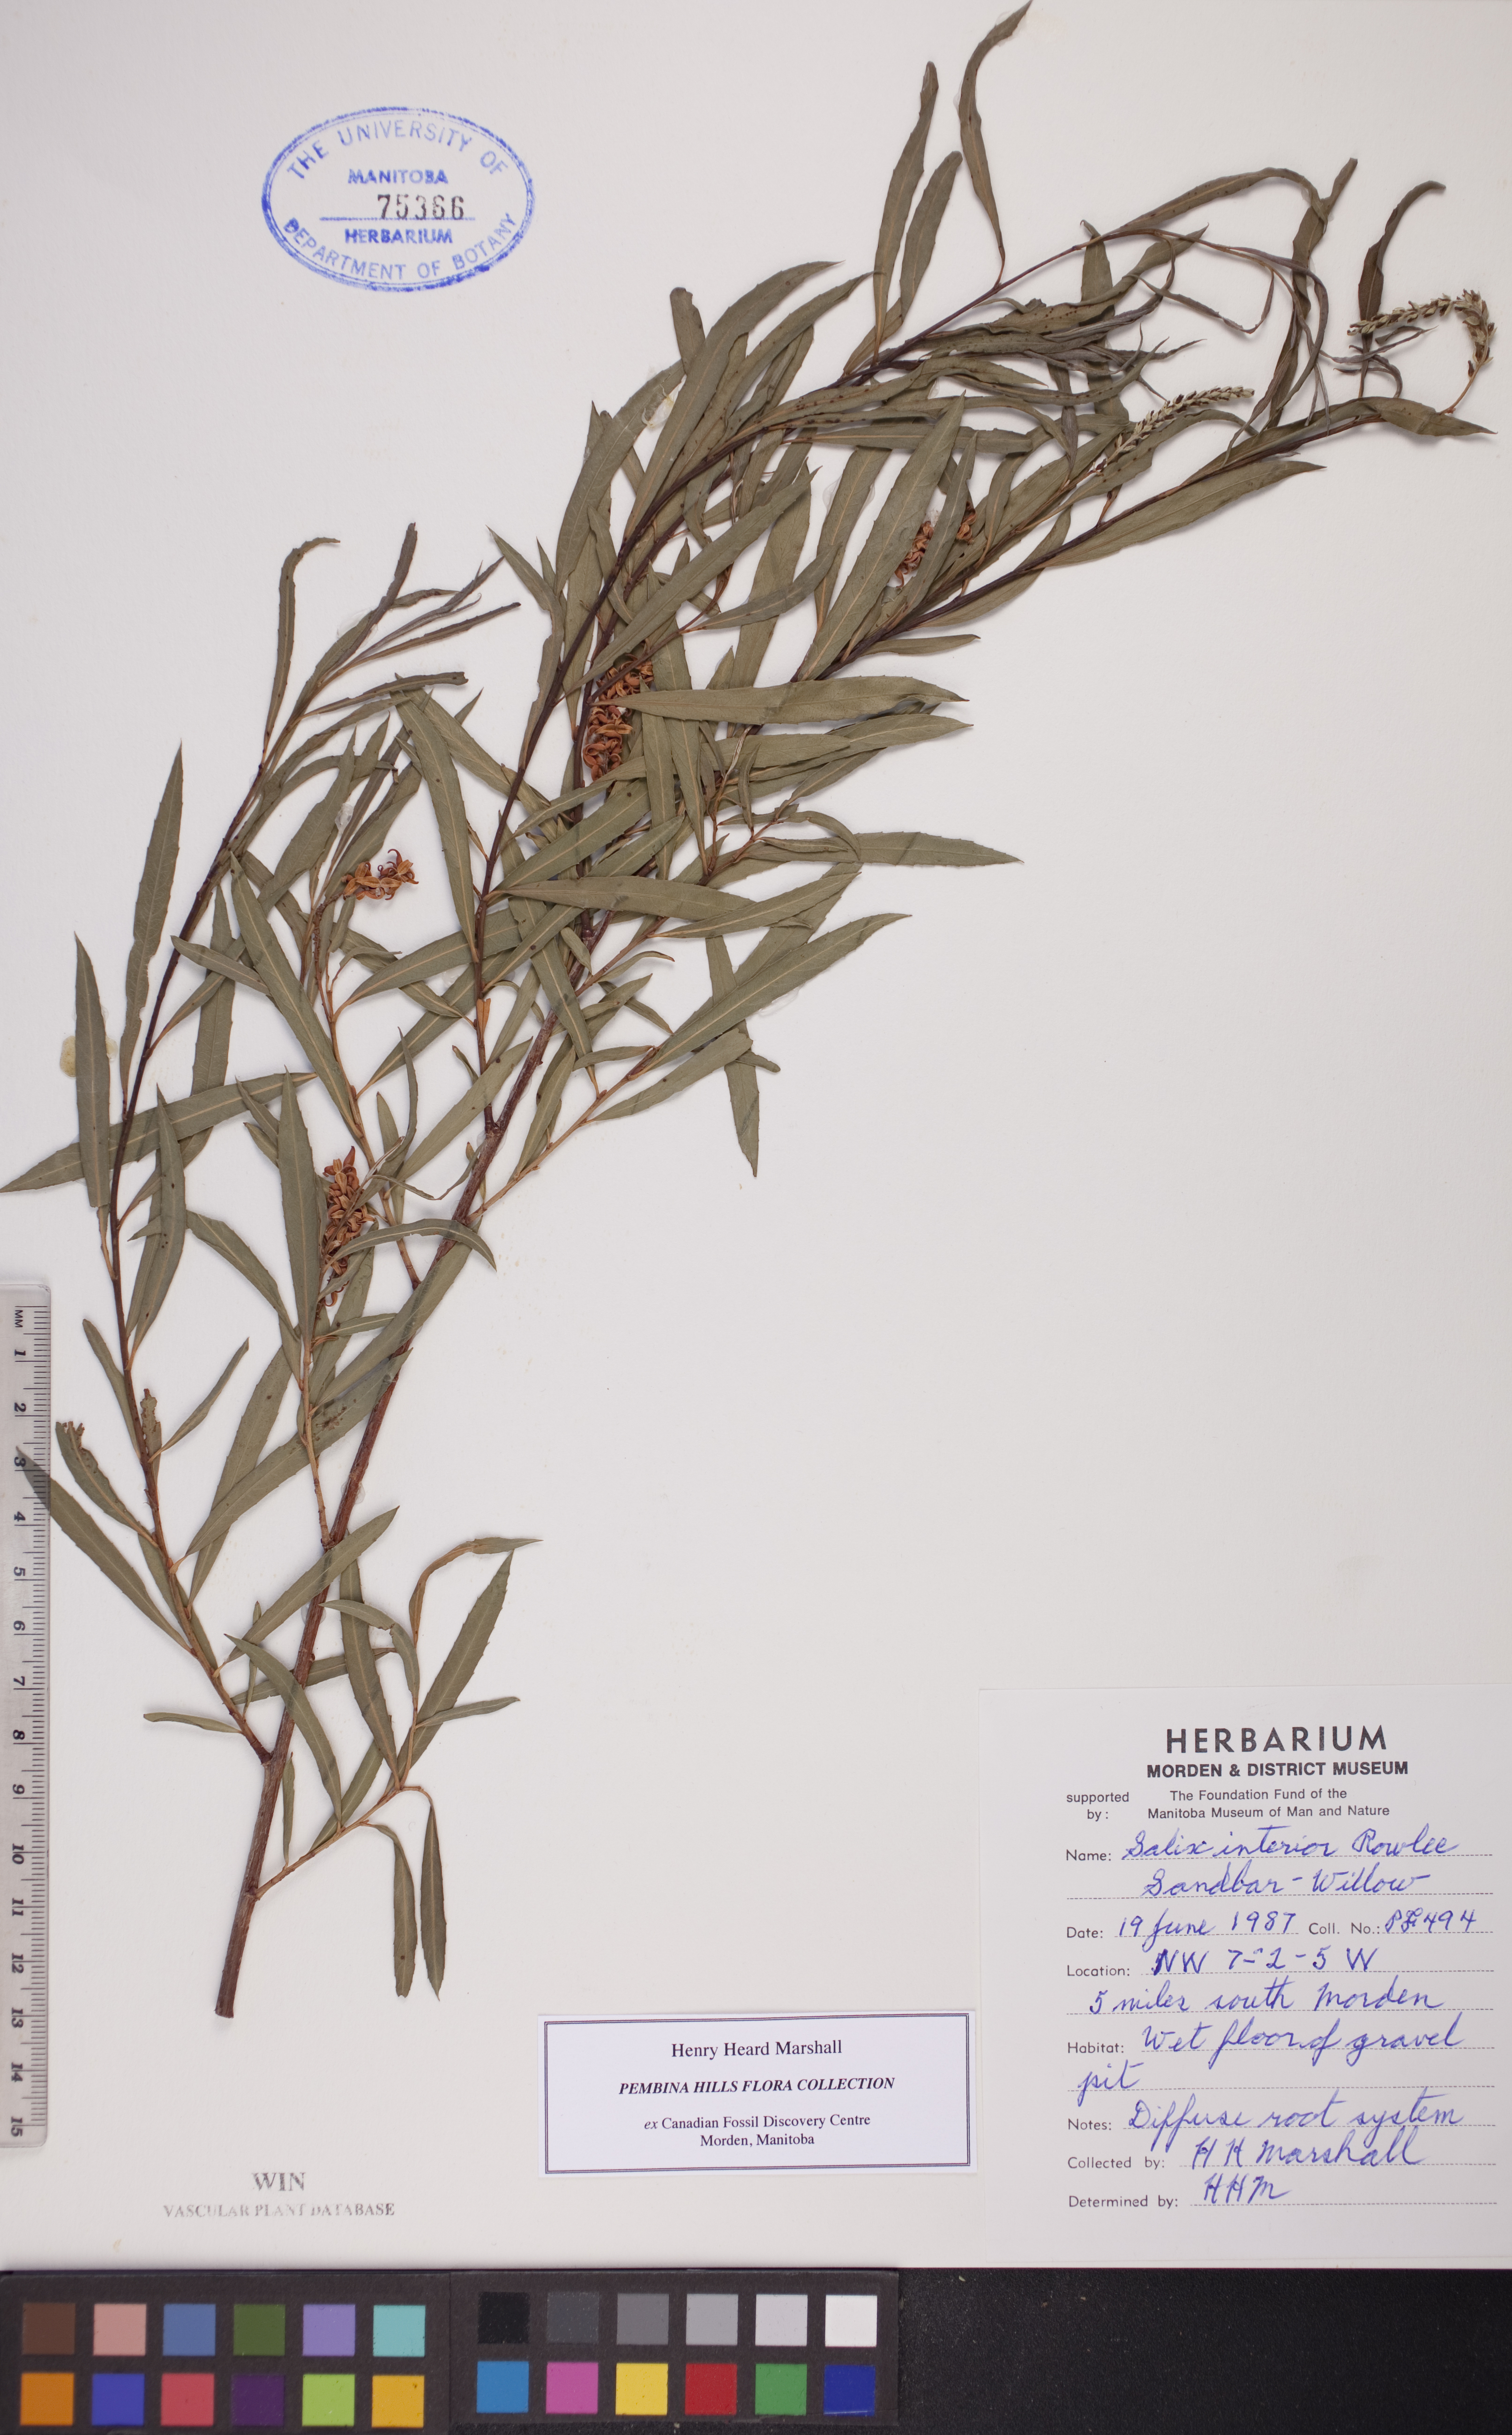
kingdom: Plantae
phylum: Tracheophyta
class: Magnoliopsida
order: Malpighiales
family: Salicaceae
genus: Salix
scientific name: Salix interior
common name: Sandbar willow
